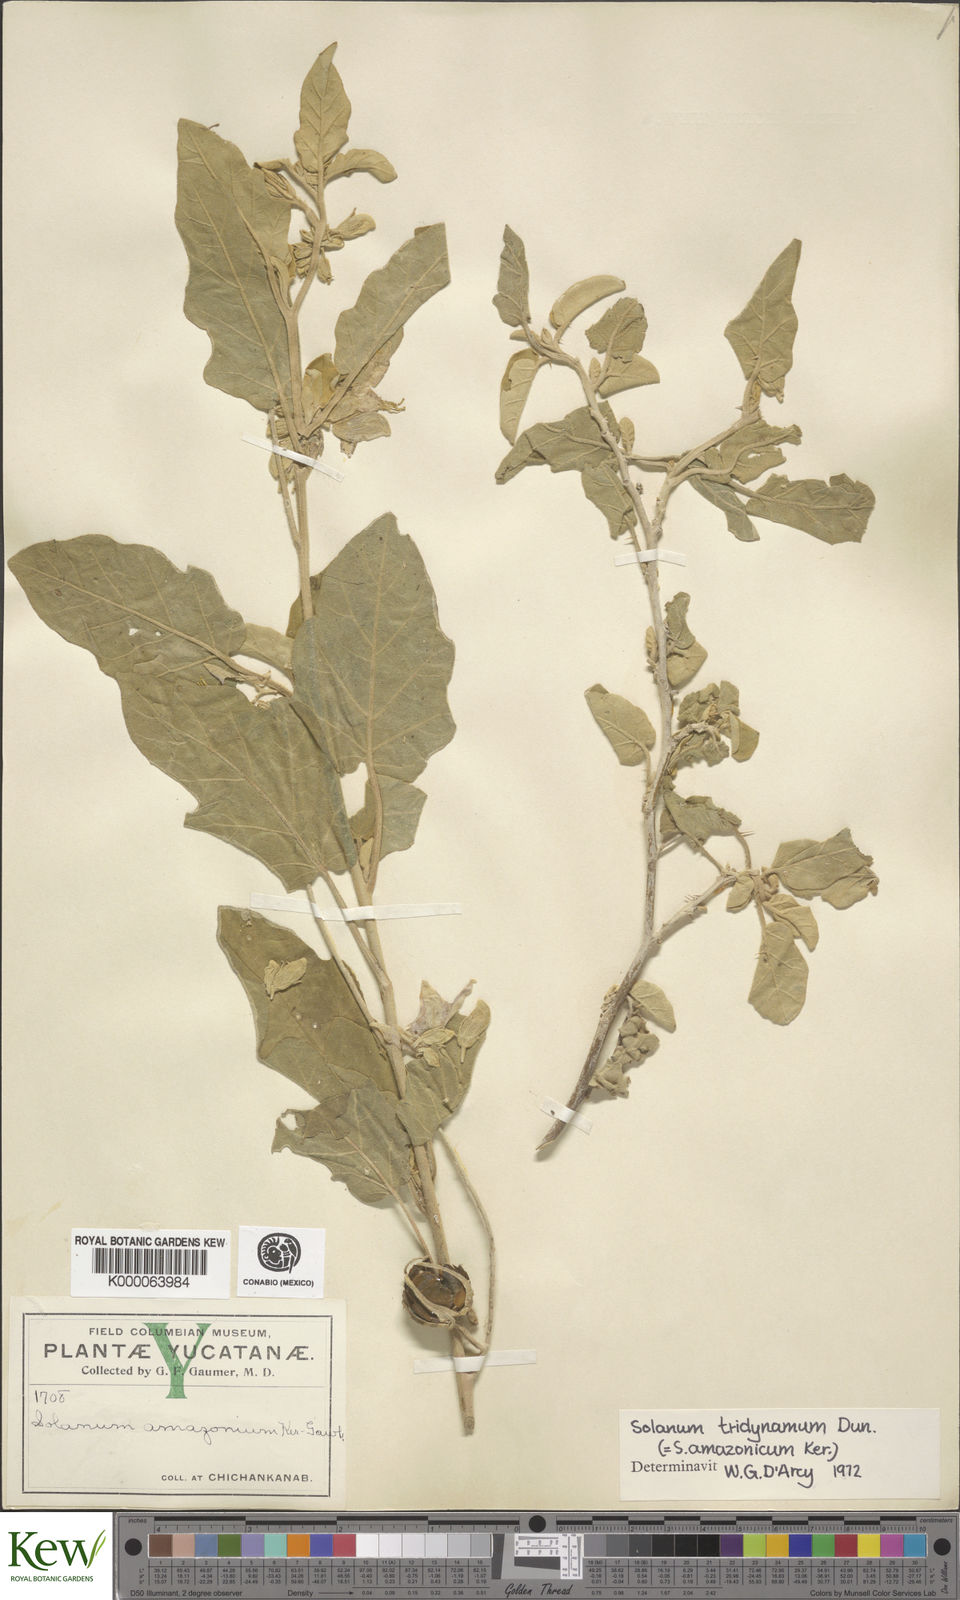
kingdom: Plantae
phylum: Tracheophyta
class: Magnoliopsida
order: Solanales
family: Solanaceae
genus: Solanum
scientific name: Solanum houstonii
